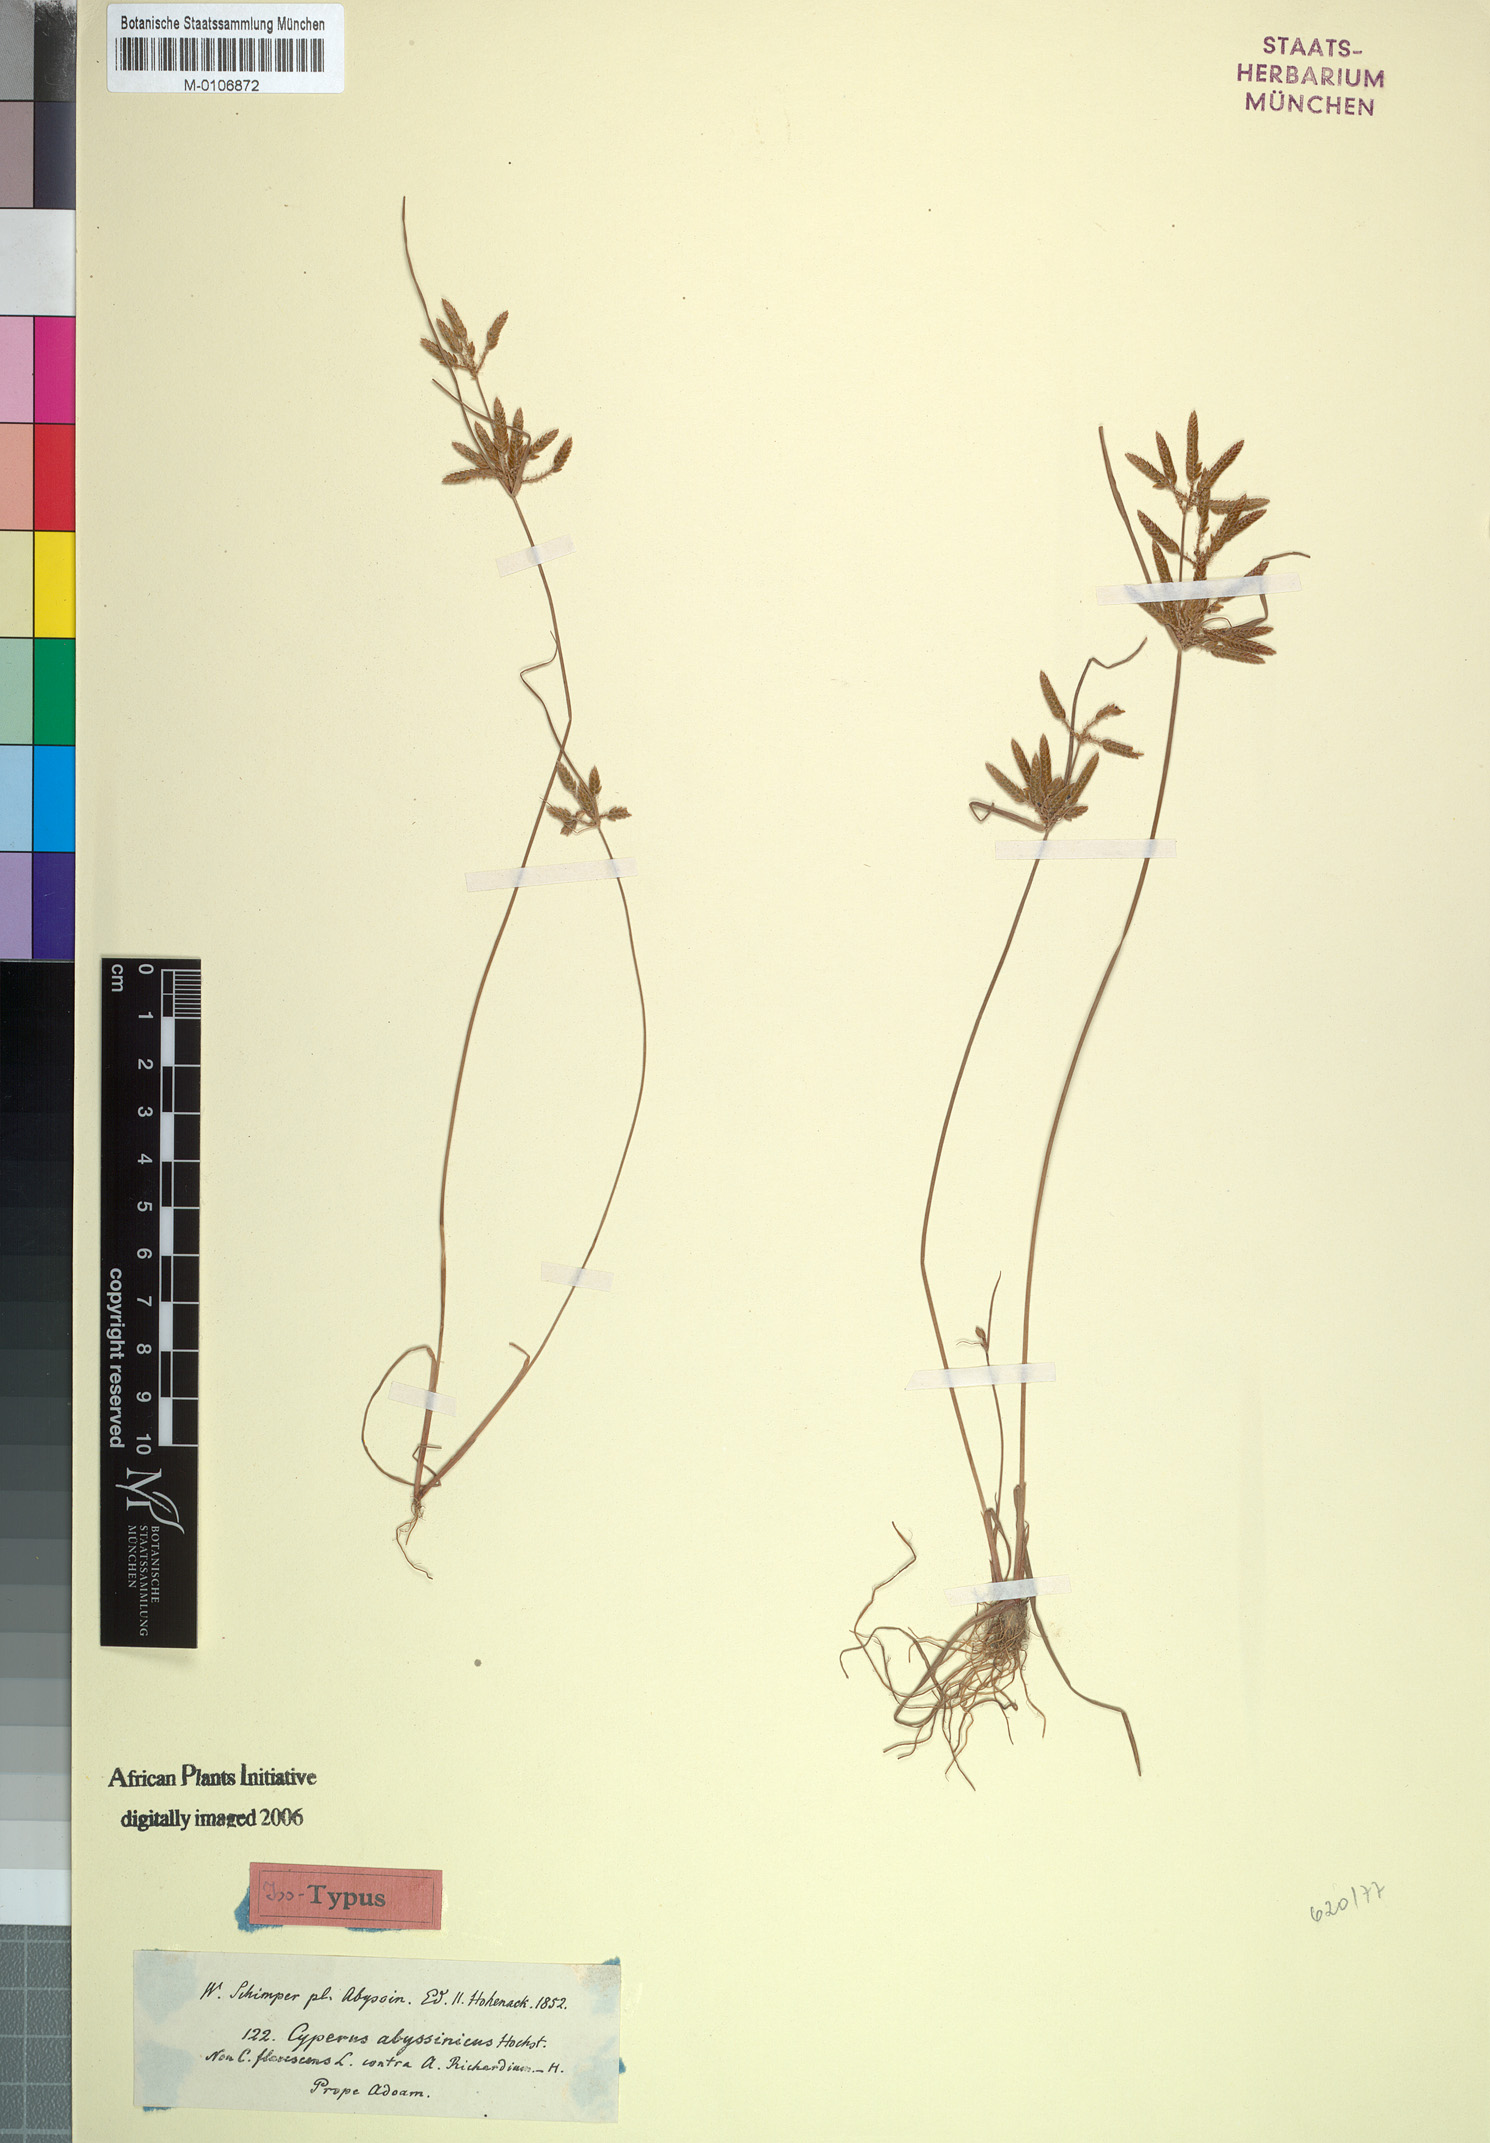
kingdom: Plantae
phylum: Tracheophyta
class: Liliopsida
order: Poales
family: Cyperaceae
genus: Cyperus
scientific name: Cyperus flavescens
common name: Yellow galingale
